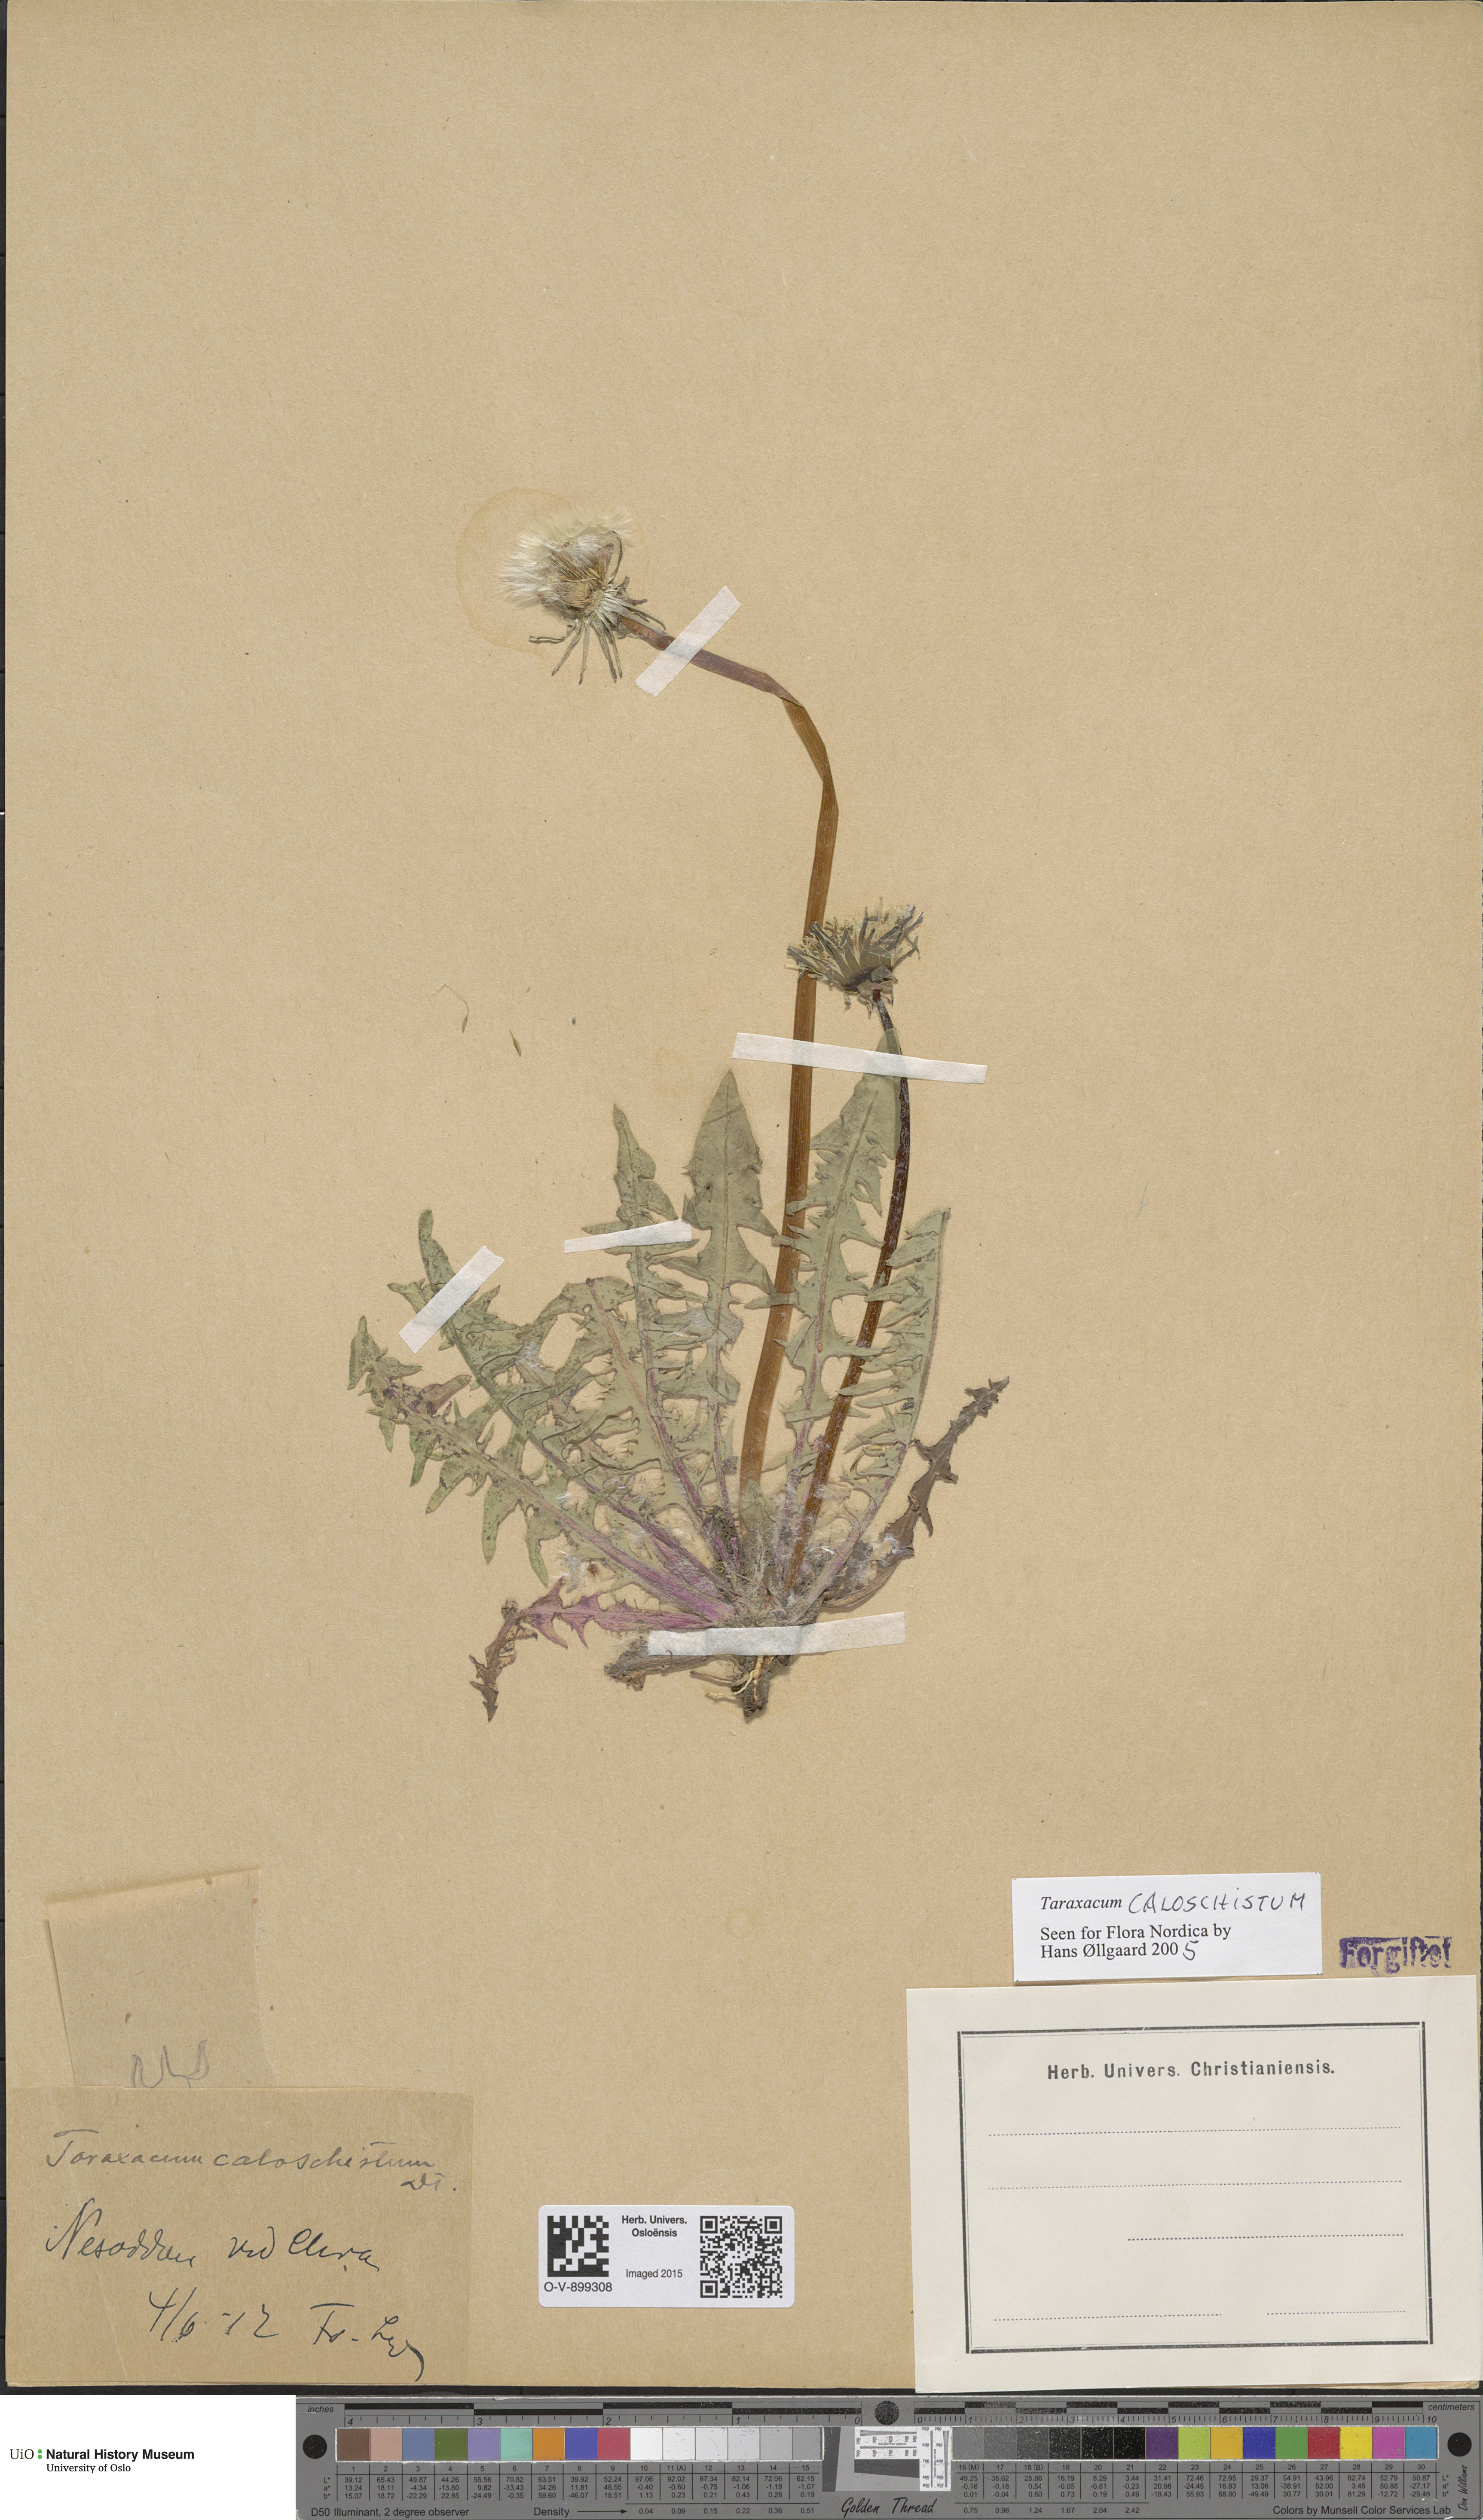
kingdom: Plantae
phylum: Tracheophyta
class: Magnoliopsida
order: Asterales
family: Asteraceae
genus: Taraxacum
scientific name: Taraxacum caloschistum
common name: Brilliant-stalked dandelion
